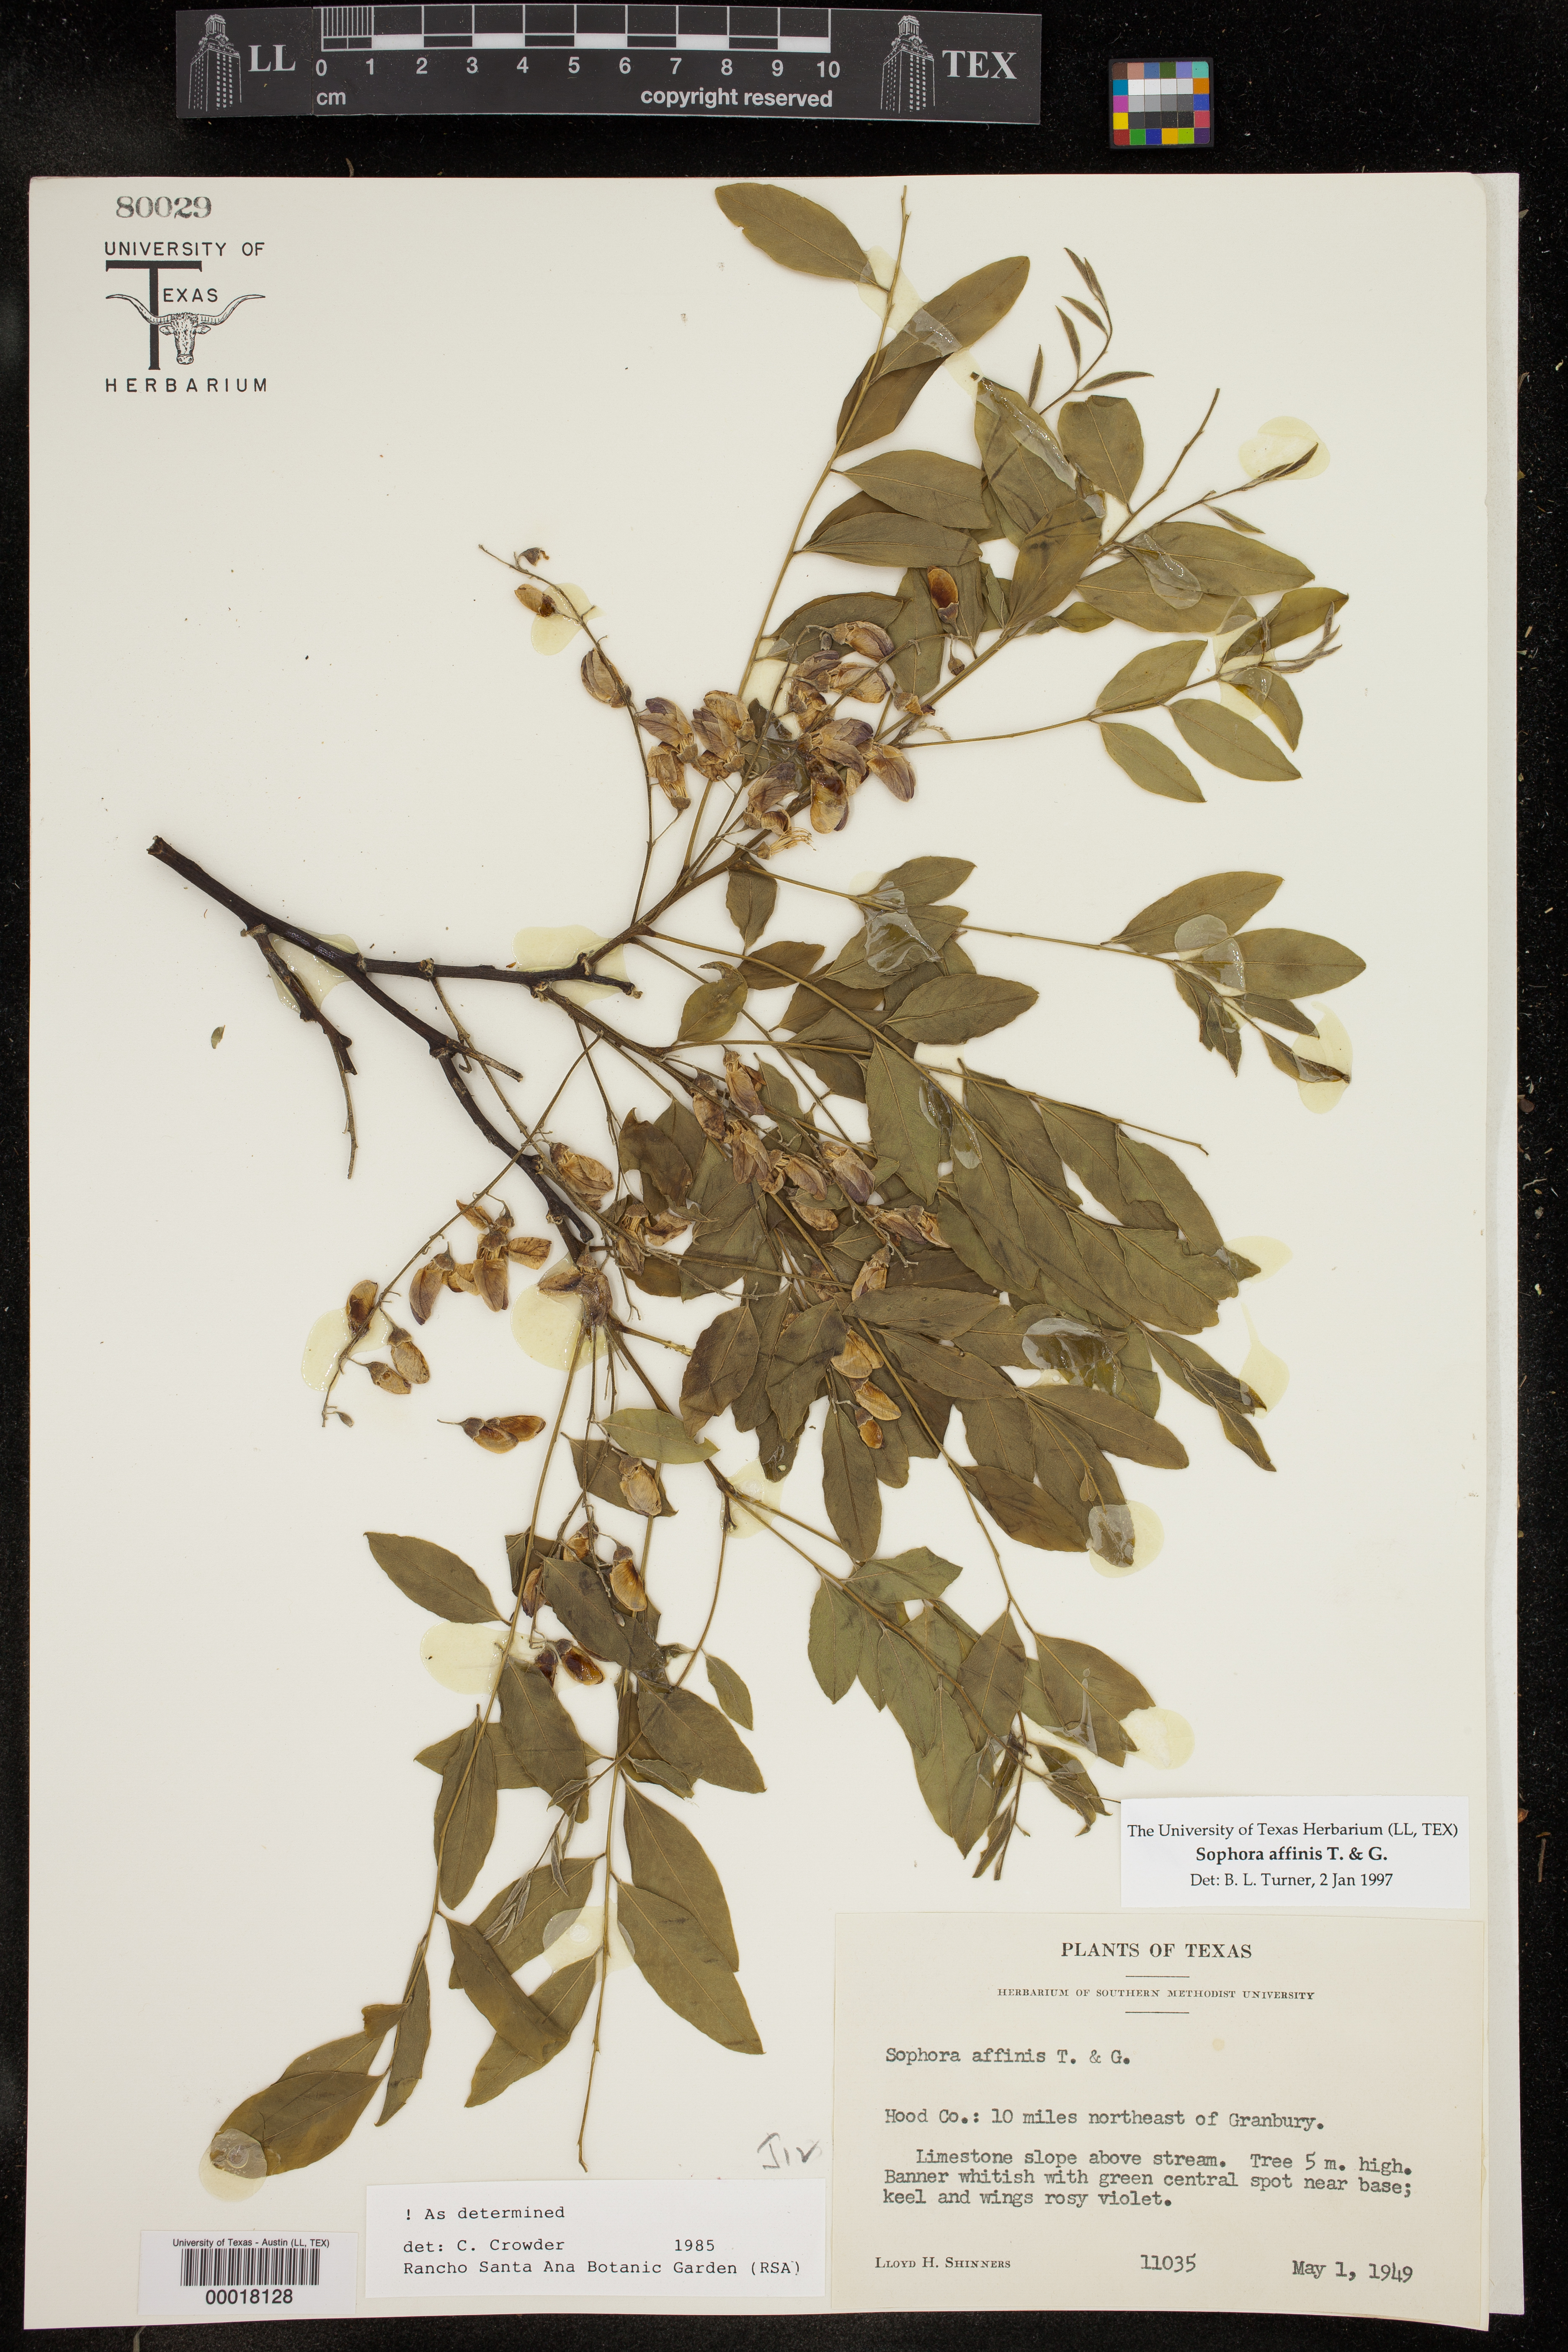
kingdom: Plantae
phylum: Tracheophyta
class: Magnoliopsida
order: Fabales
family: Fabaceae
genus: Styphnolobium
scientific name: Styphnolobium affine
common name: Texas sophora
